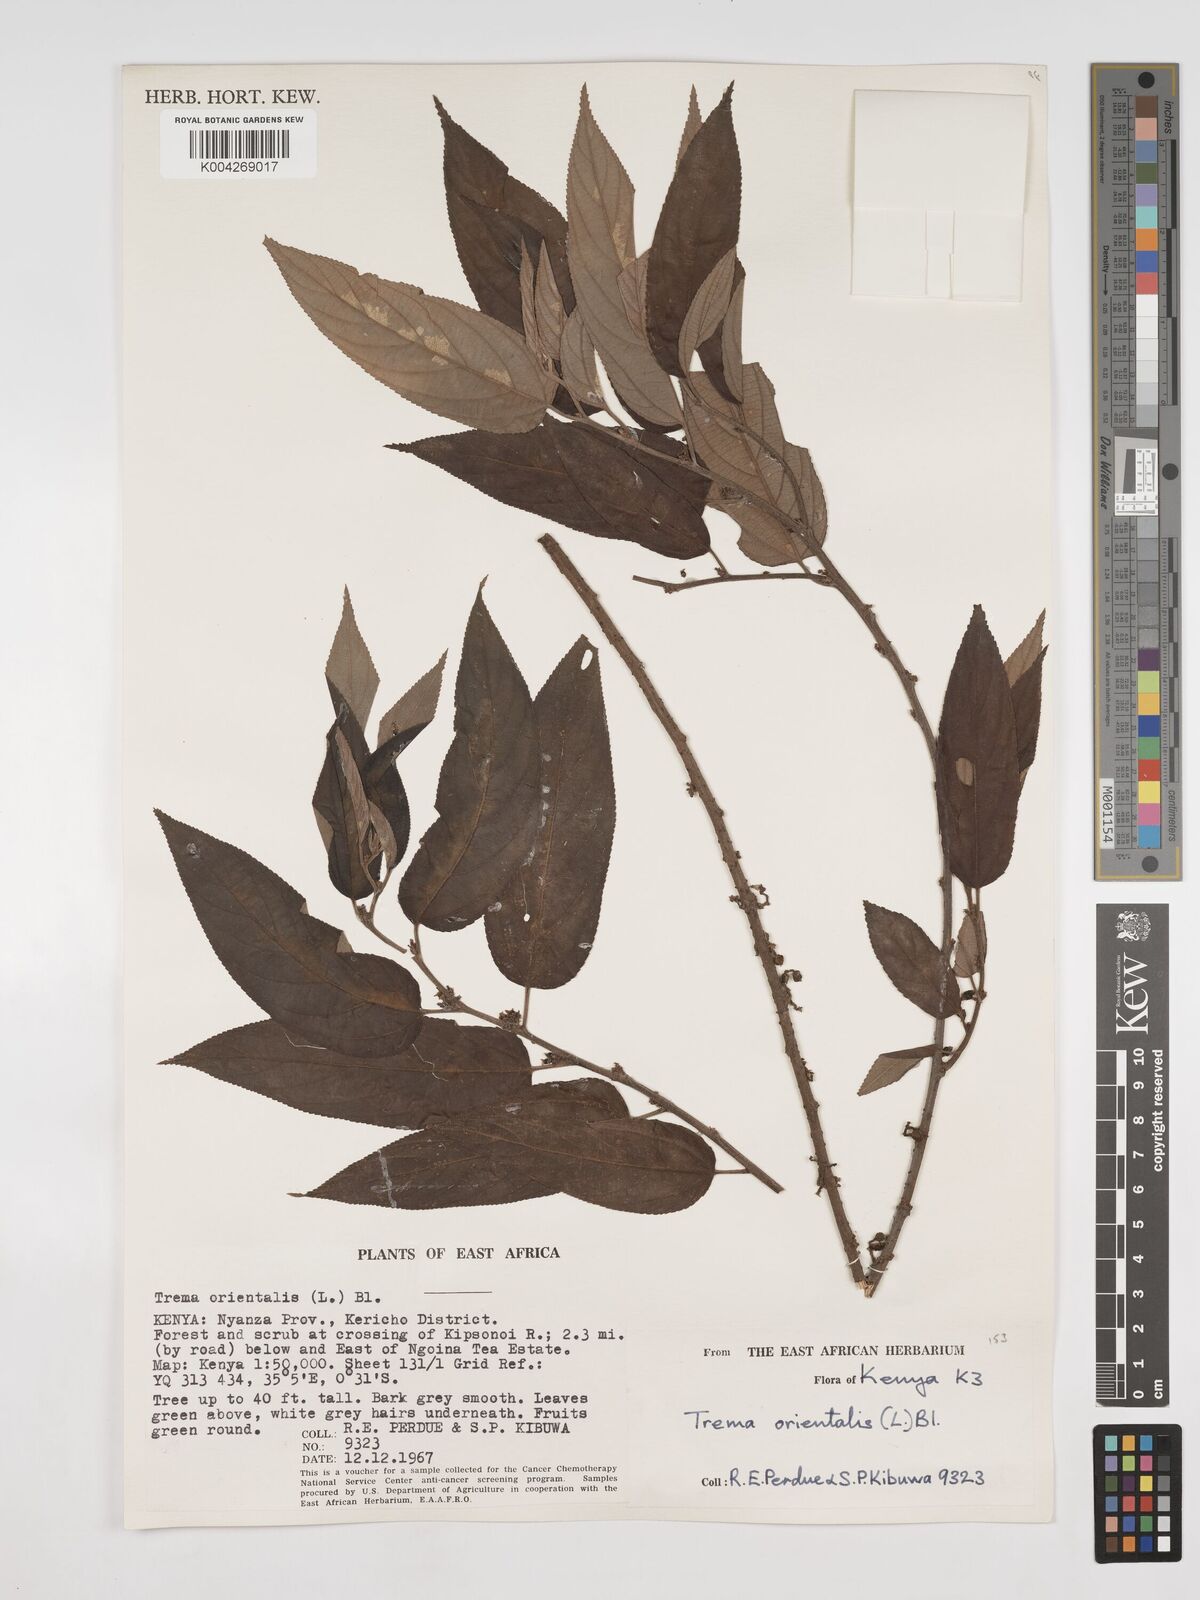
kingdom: Plantae
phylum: Tracheophyta
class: Magnoliopsida
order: Rosales
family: Cannabaceae
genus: Trema
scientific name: Trema orientale
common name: Indian charcoal tree
